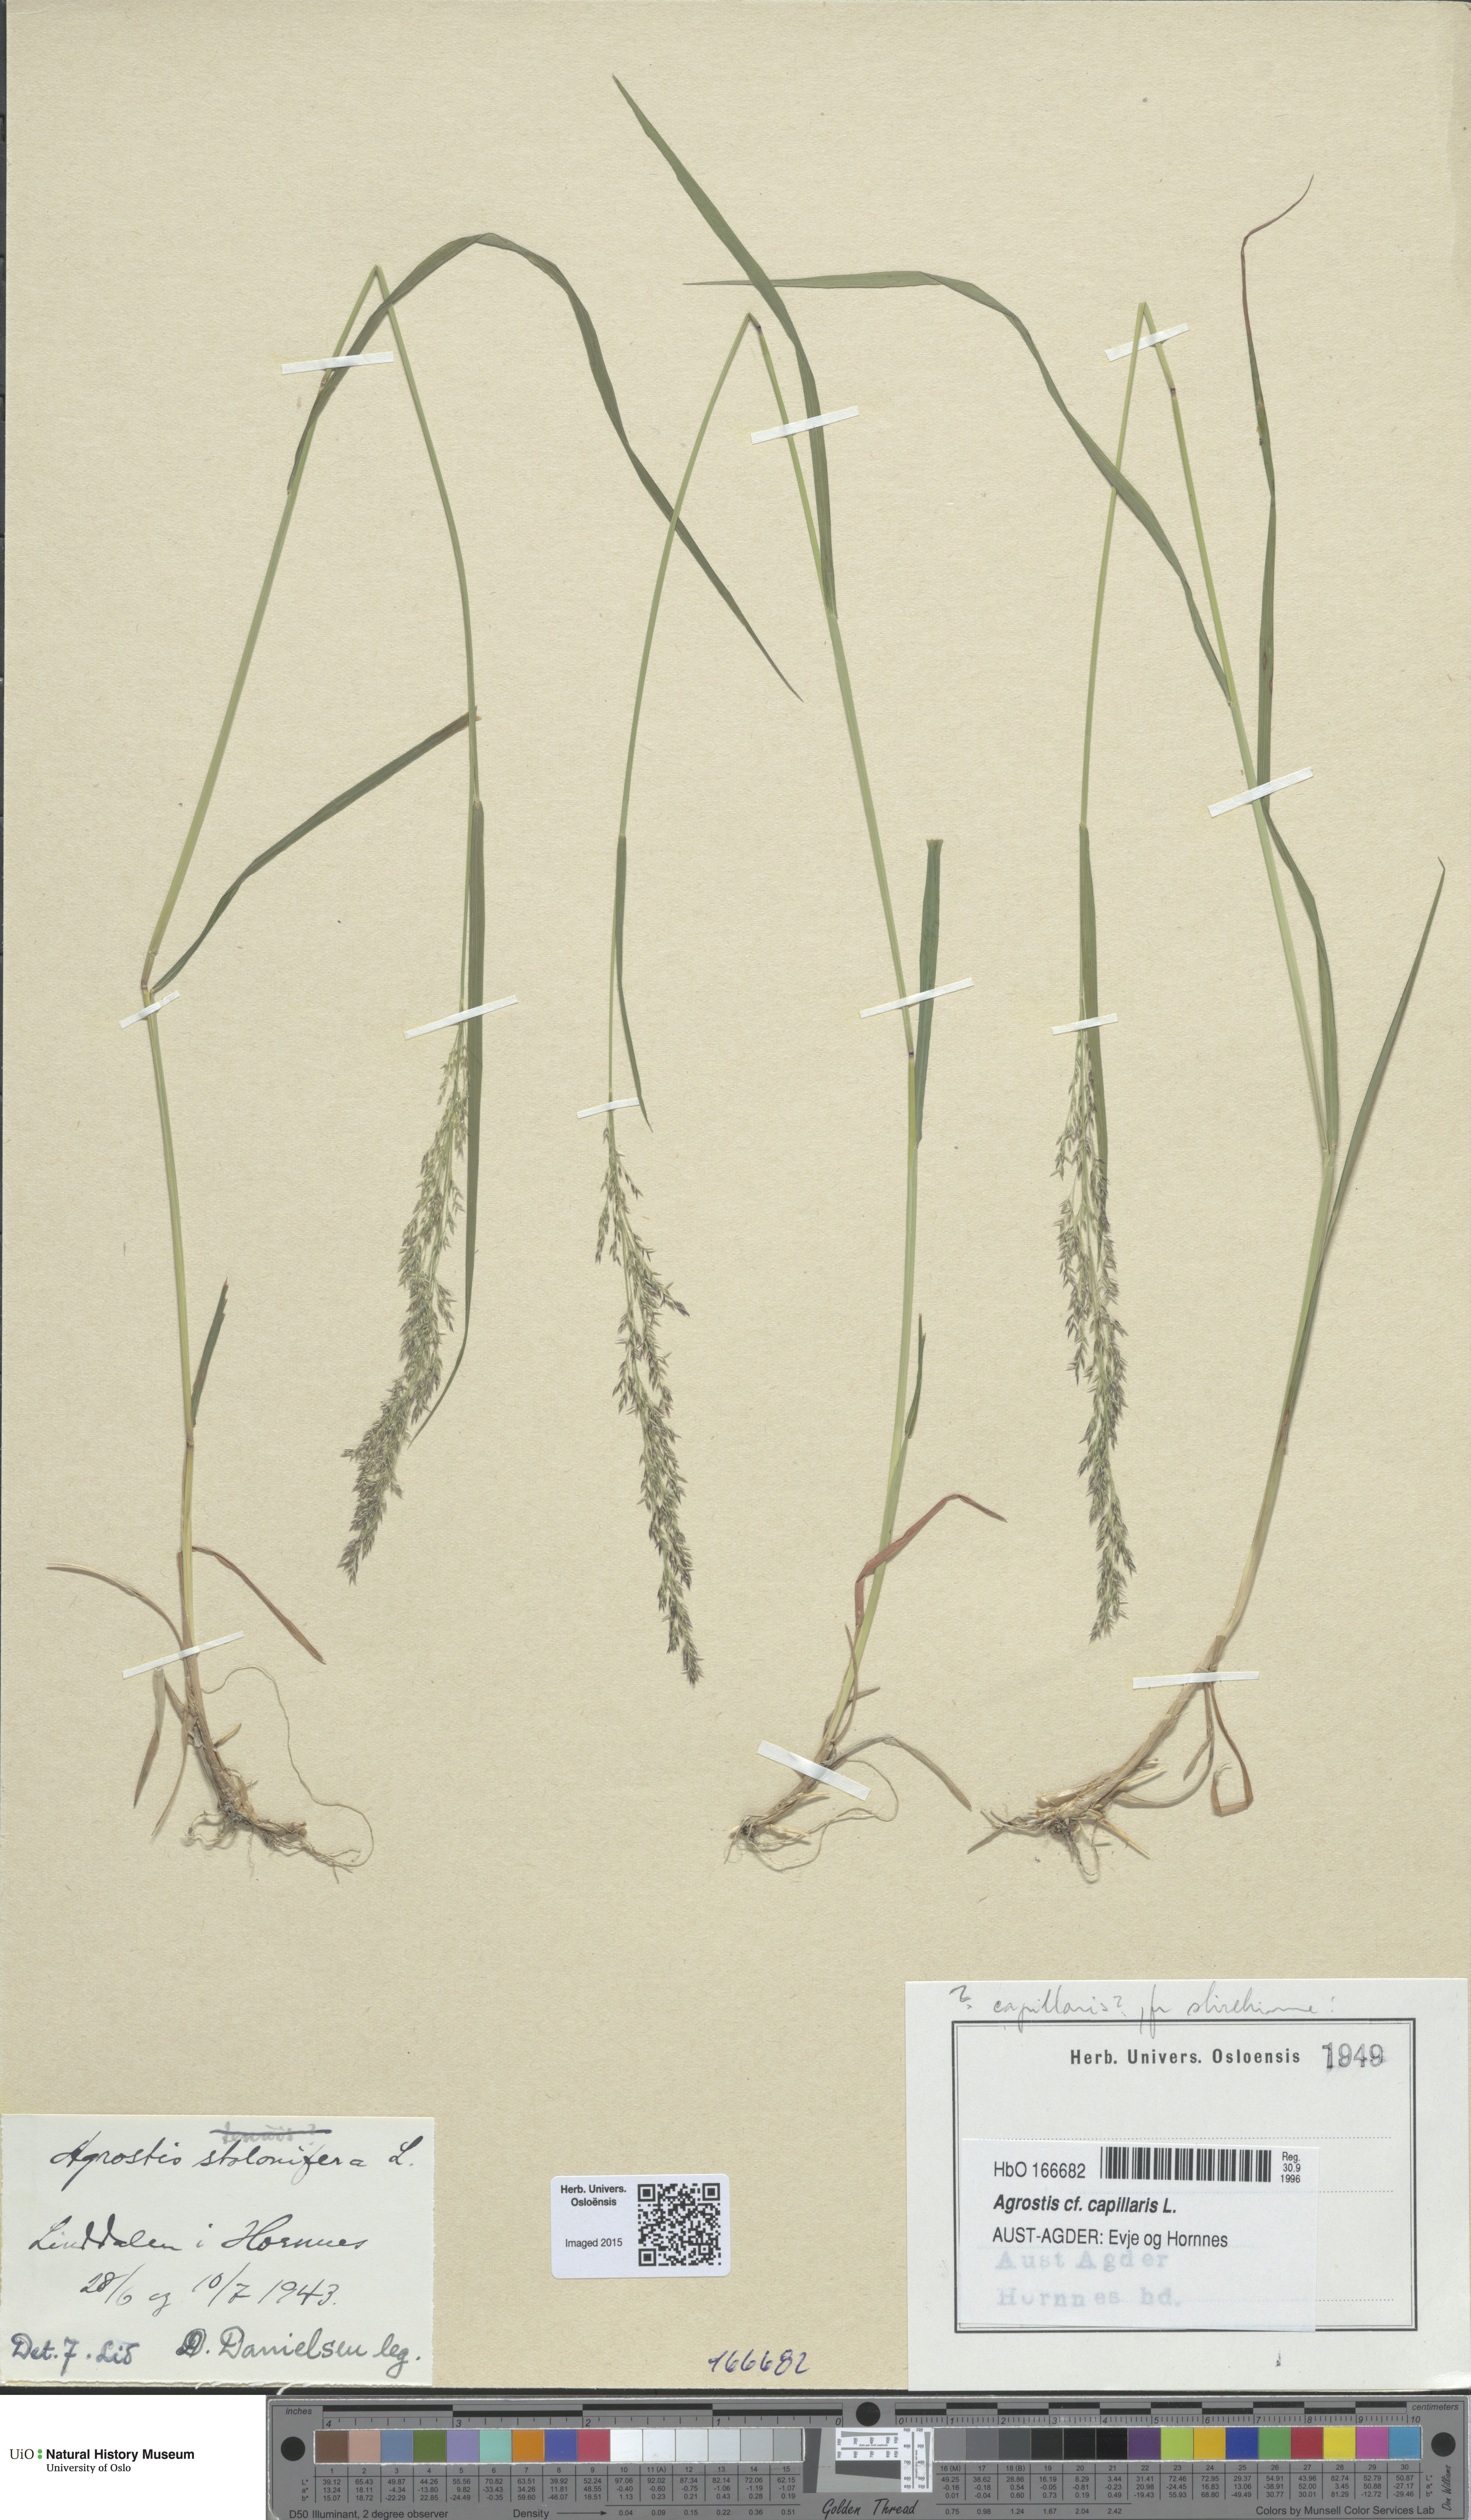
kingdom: Plantae
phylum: Tracheophyta
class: Liliopsida
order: Poales
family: Poaceae
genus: Agrostis
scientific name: Agrostis capillaris
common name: Colonial bentgrass
